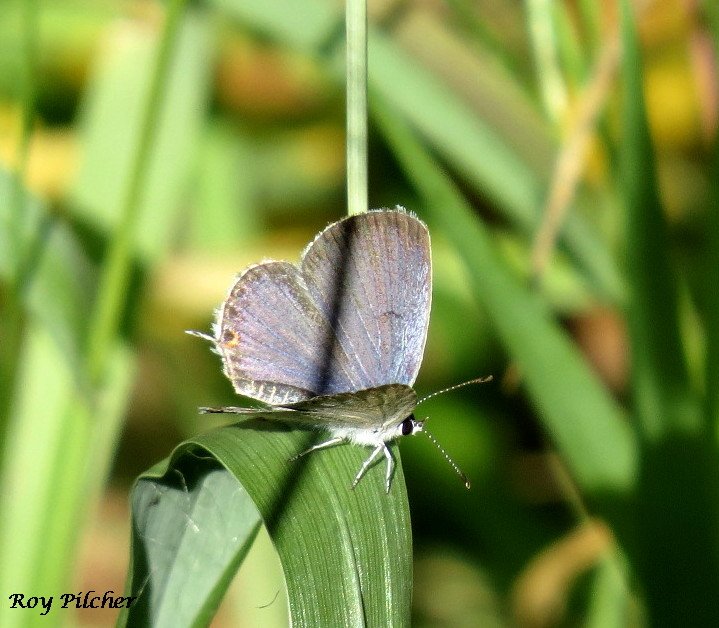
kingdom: Animalia
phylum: Arthropoda
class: Insecta
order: Lepidoptera
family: Lycaenidae
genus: Elkalyce
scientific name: Elkalyce comyntas
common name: Eastern Tailed-Blue
